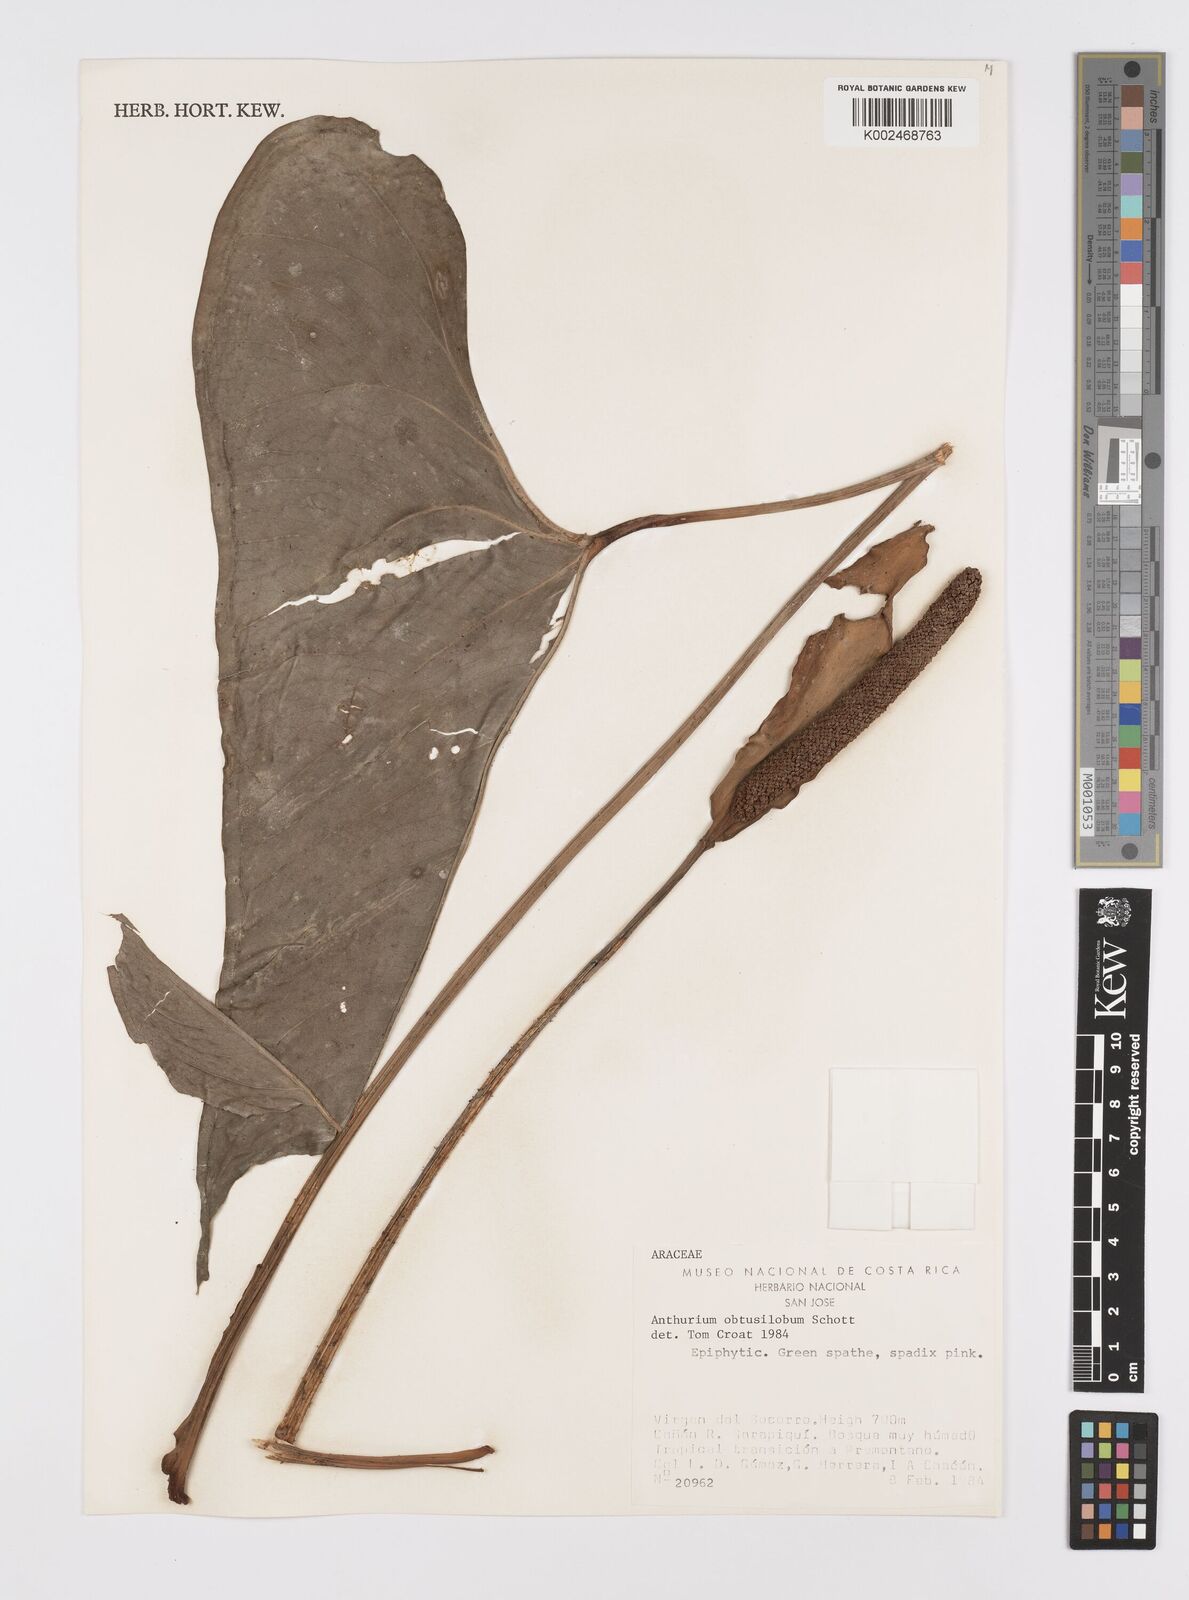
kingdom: Plantae
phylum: Tracheophyta
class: Liliopsida
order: Alismatales
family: Araceae
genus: Anthurium
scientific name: Anthurium obtusilobum
